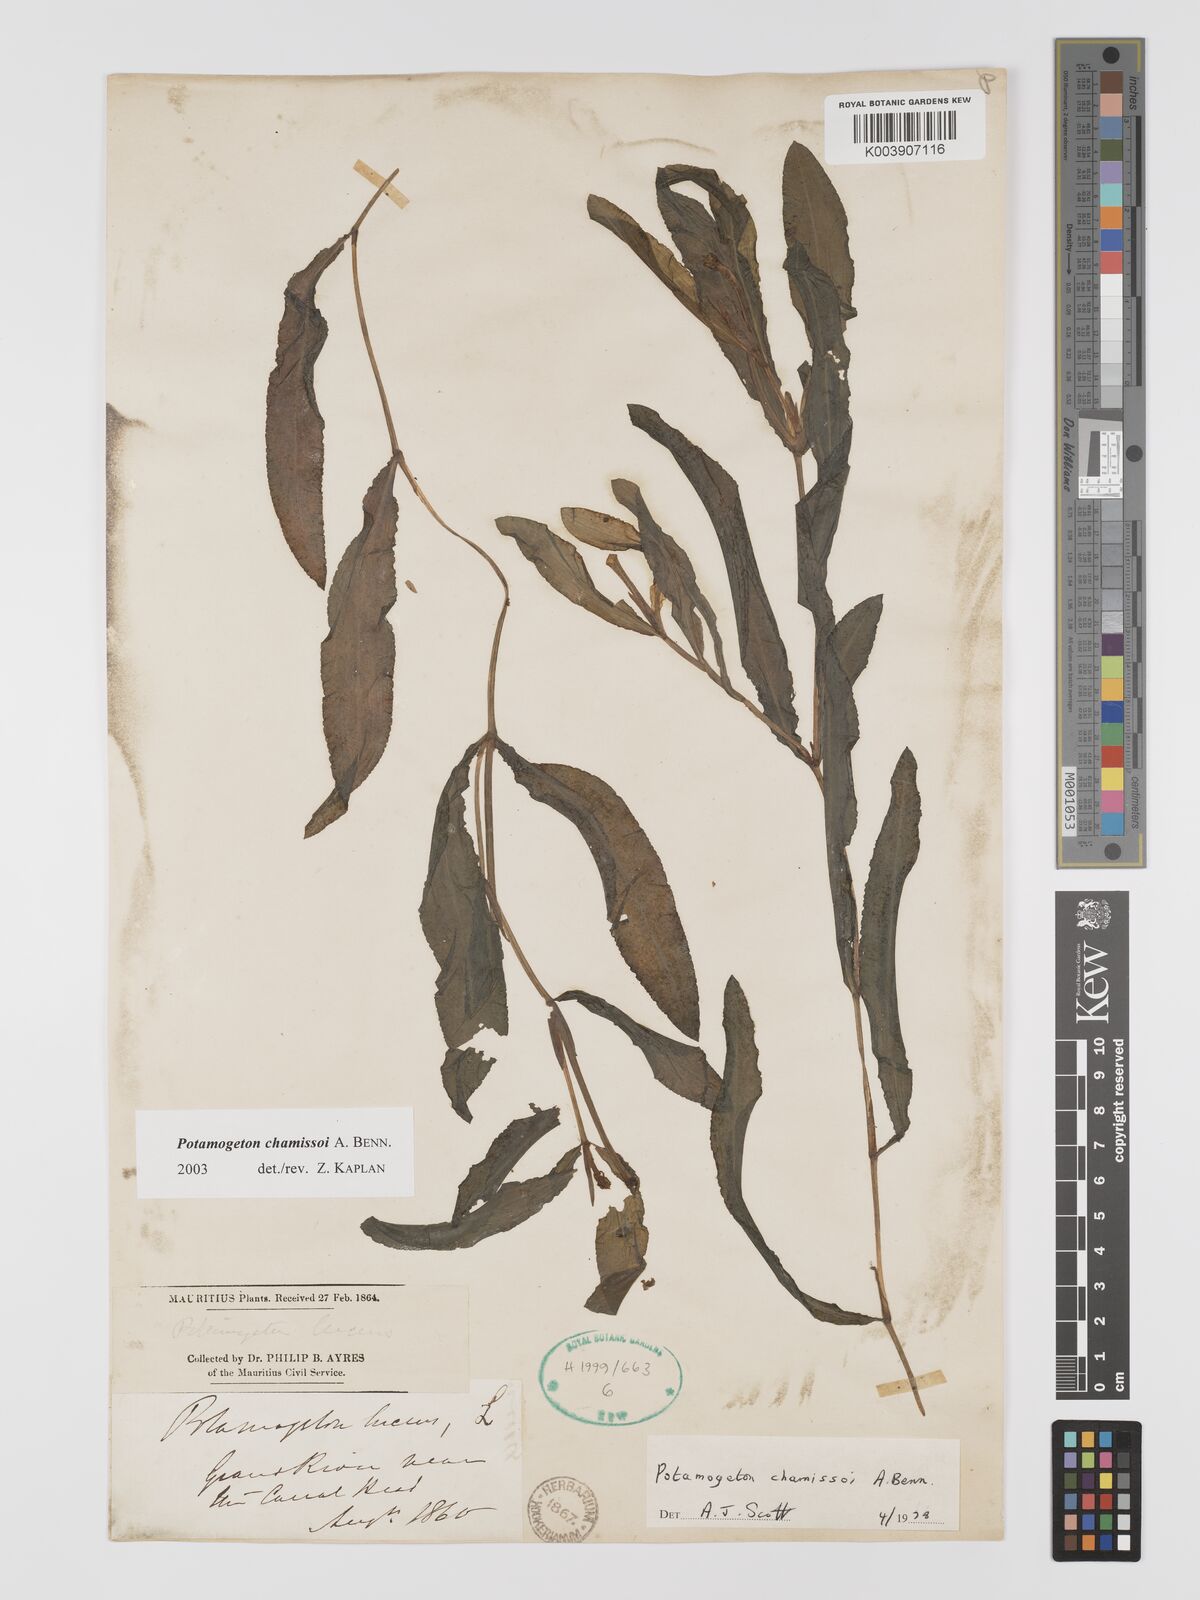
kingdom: Plantae
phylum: Tracheophyta
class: Liliopsida
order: Alismatales
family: Potamogetonaceae
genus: Potamogeton
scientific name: Potamogeton chamissoi
